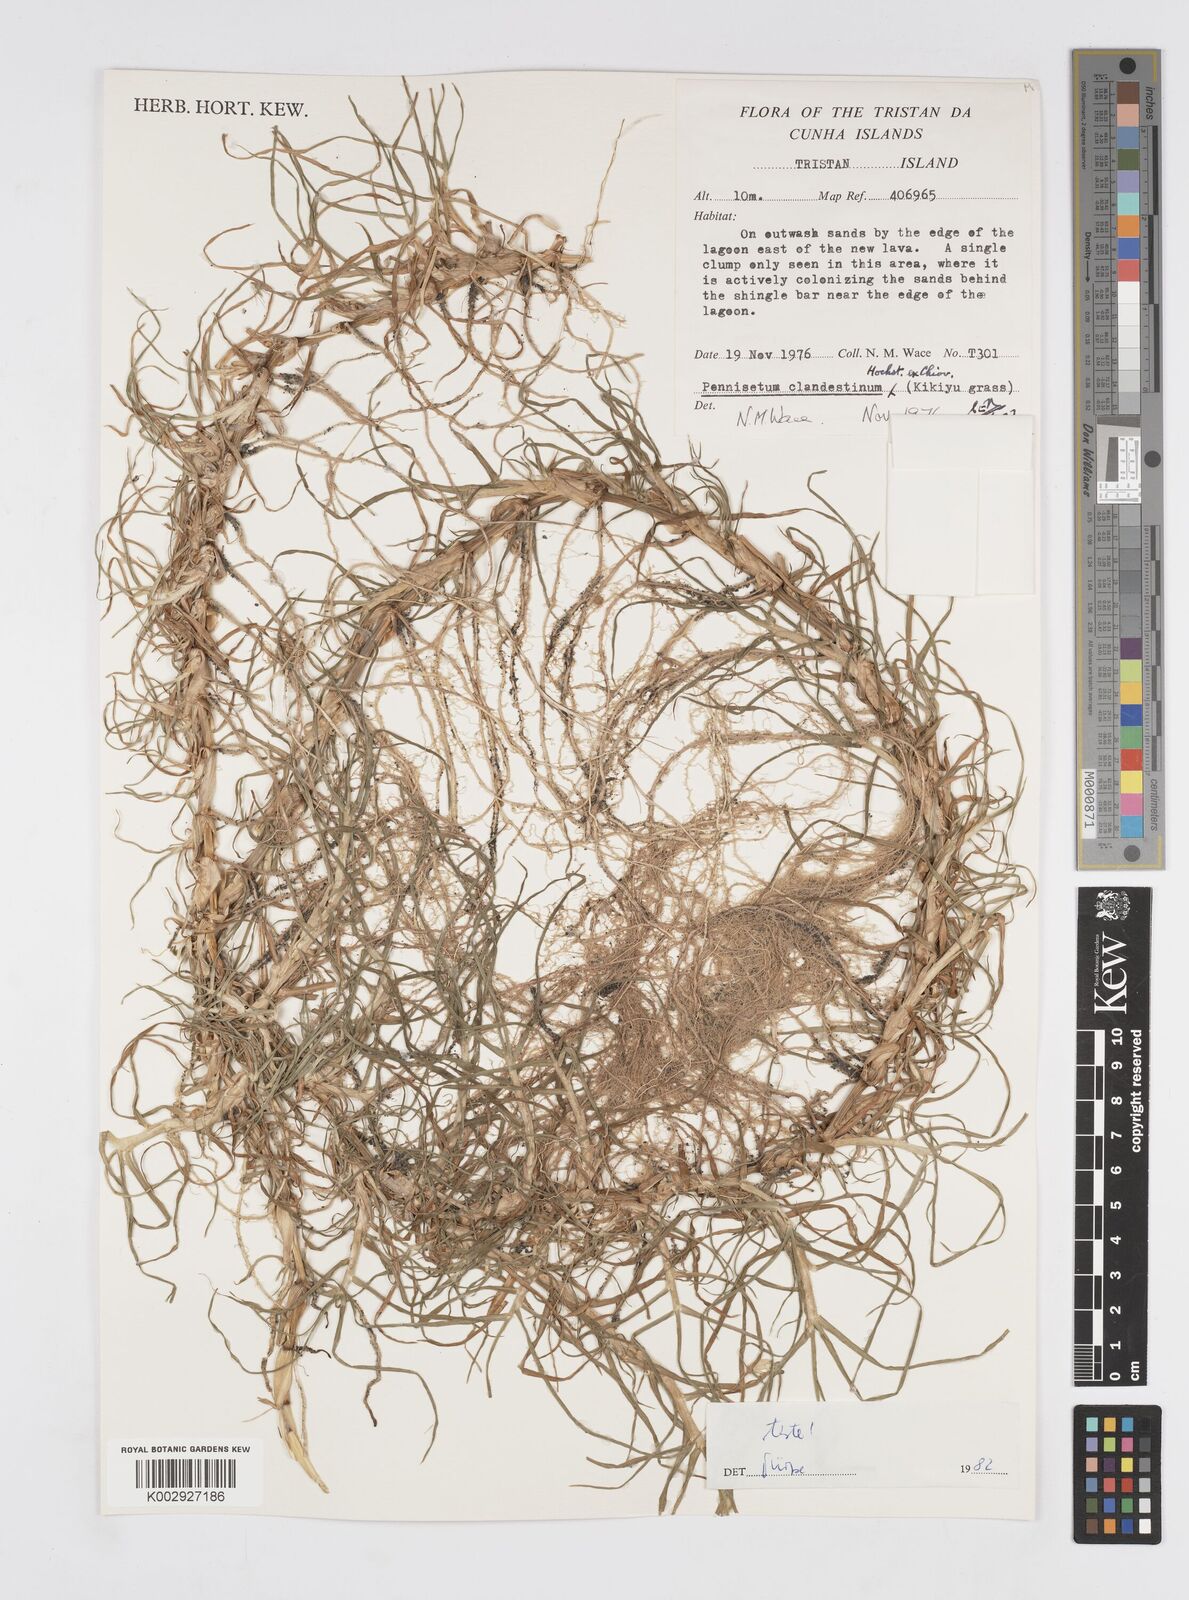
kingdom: Plantae
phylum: Tracheophyta
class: Liliopsida
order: Poales
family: Poaceae
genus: Cenchrus
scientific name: Cenchrus clandestinus
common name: Kikuyugrass
